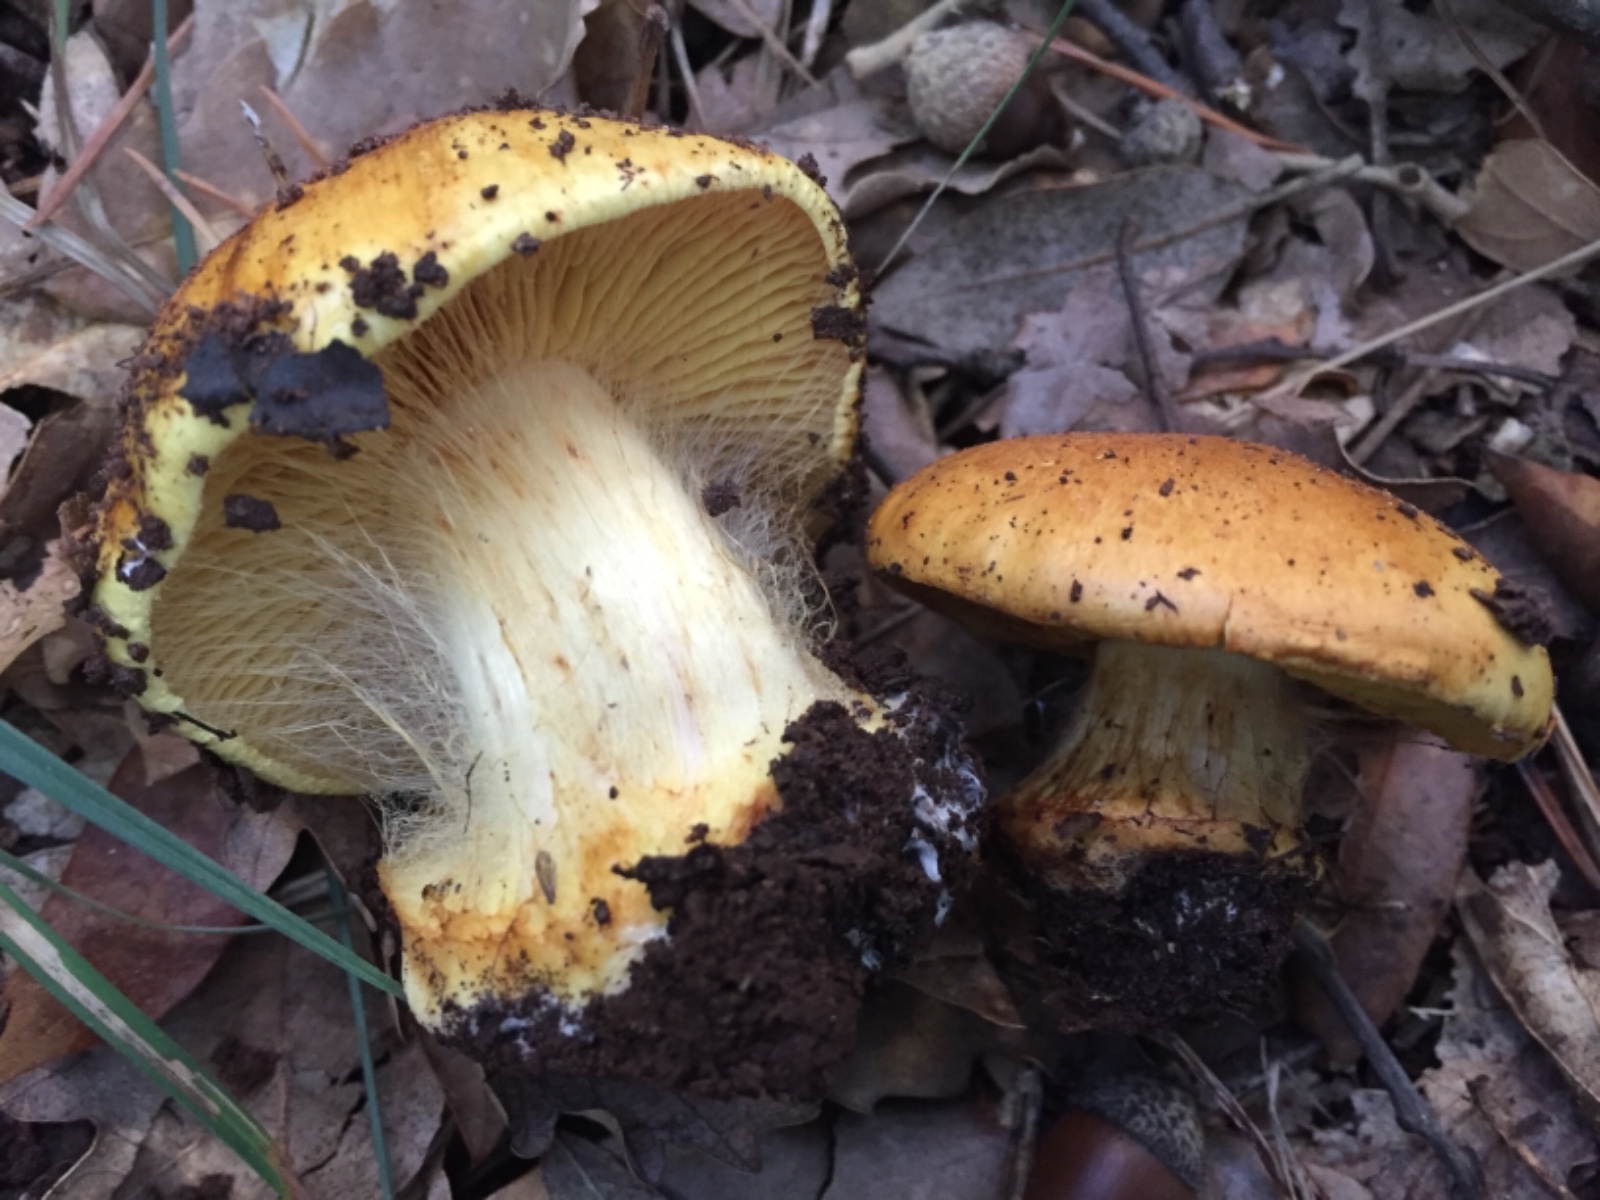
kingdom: Fungi
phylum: Basidiomycota
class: Agaricomycetes
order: Agaricales
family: Cortinariaceae
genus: Calonarius
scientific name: Calonarius olearioides
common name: safran-slørhat
